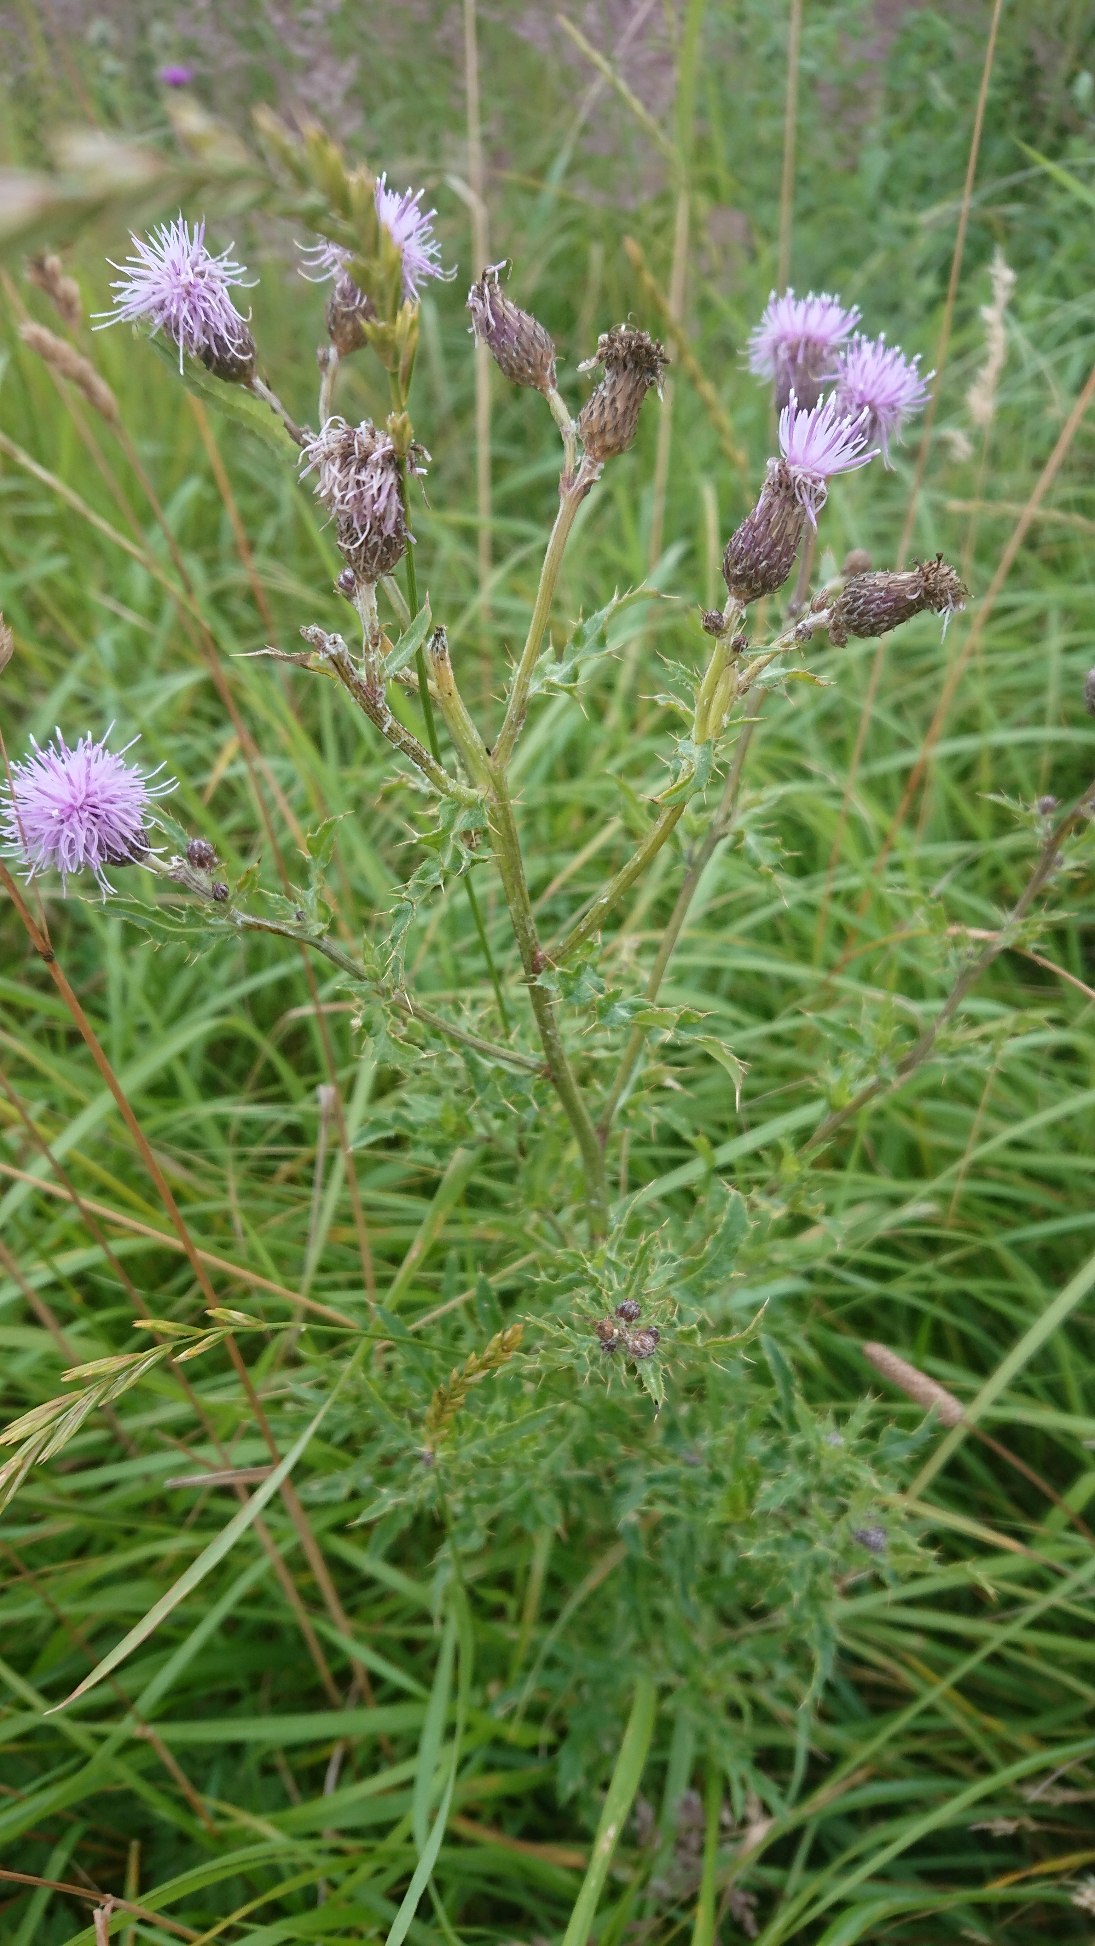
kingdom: Plantae
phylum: Tracheophyta
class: Magnoliopsida
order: Asterales
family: Asteraceae
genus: Cirsium
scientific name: Cirsium arvense
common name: Ager-tidsel
